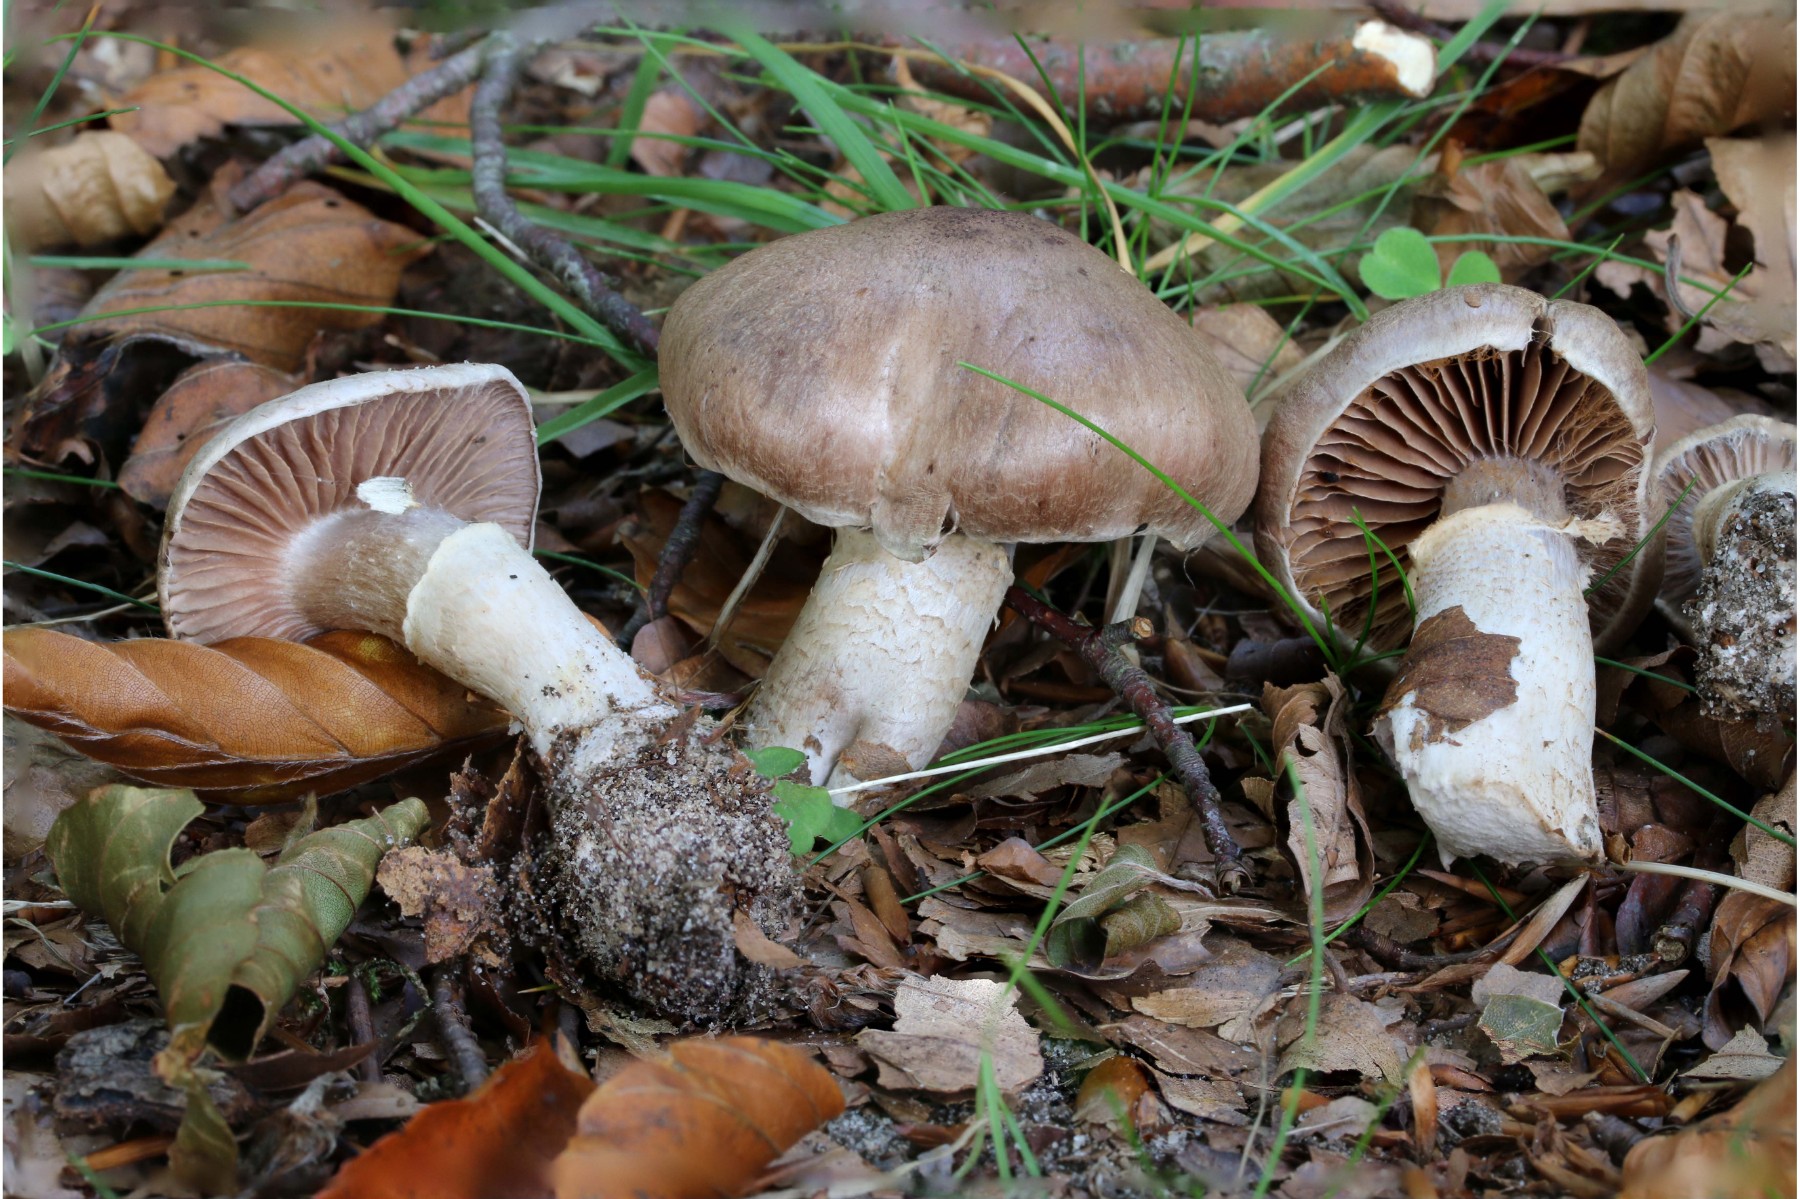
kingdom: Fungi
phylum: Basidiomycota
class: Agaricomycetes
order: Agaricales
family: Cortinariaceae
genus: Cortinarius
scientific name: Cortinarius torvus
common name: champignonagtig slørhat
